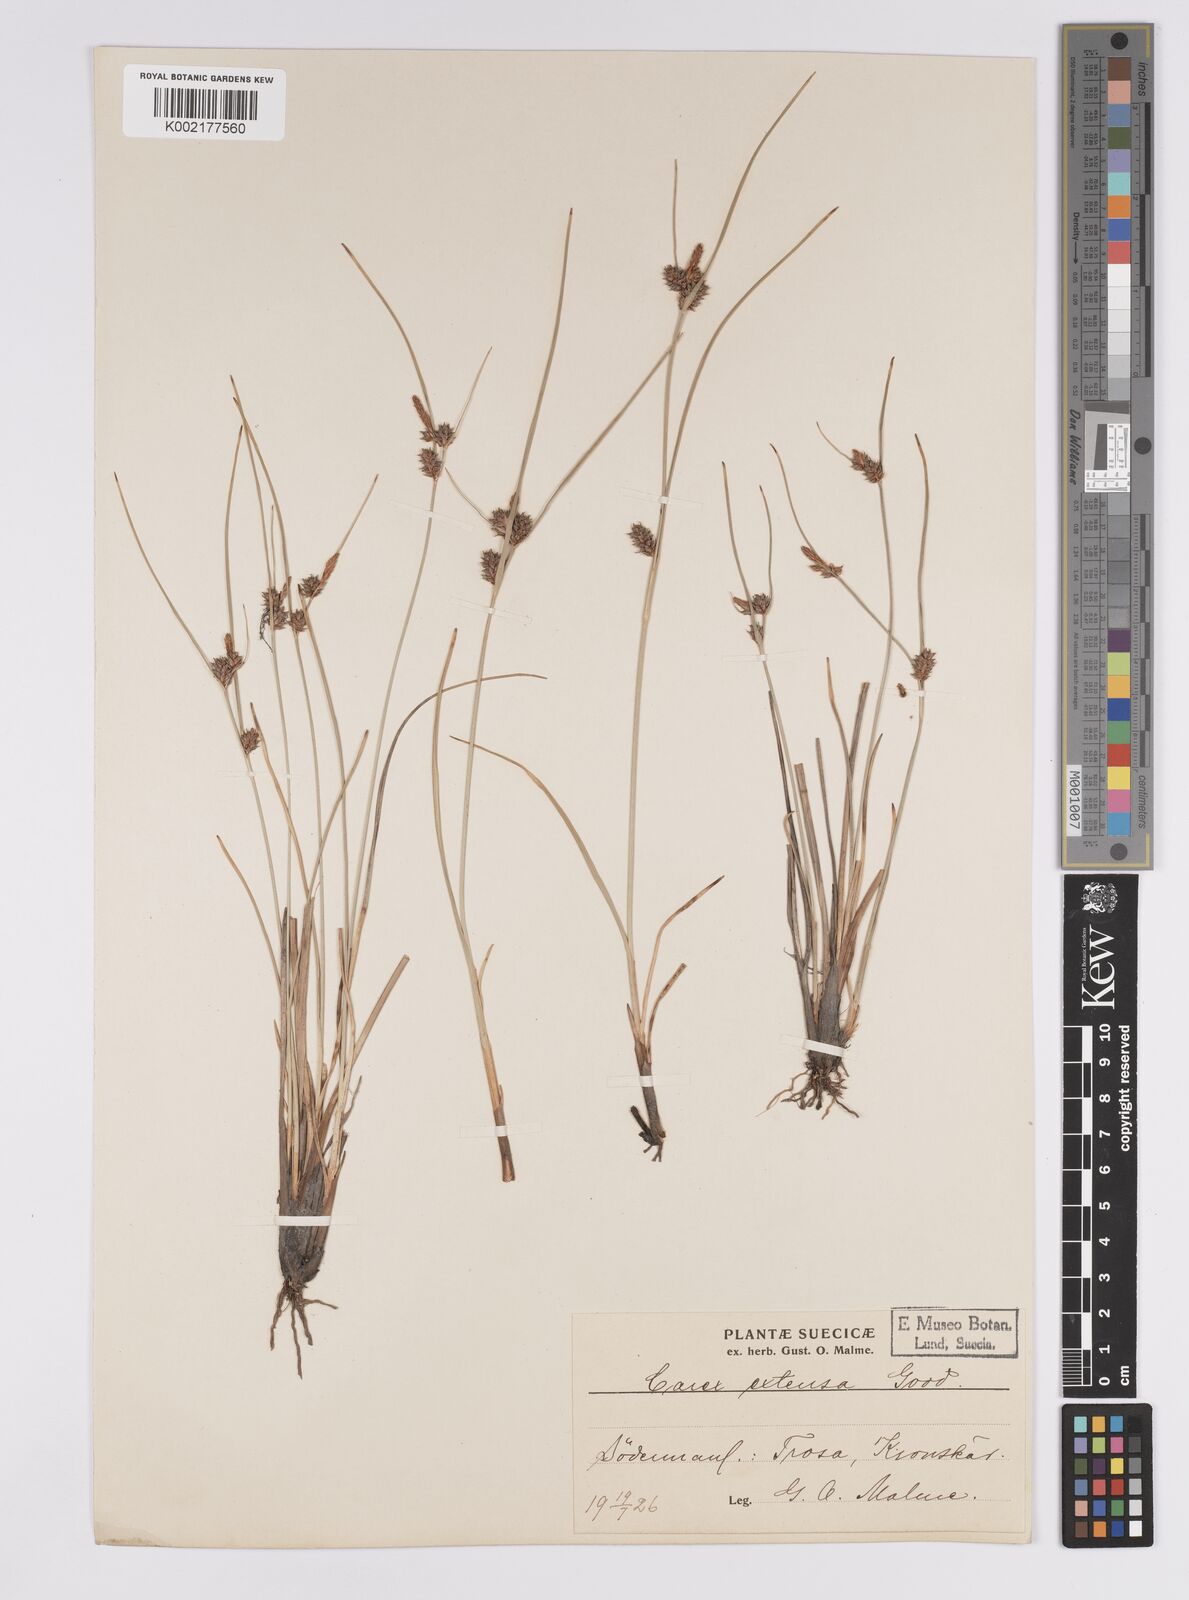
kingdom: Plantae
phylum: Tracheophyta
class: Liliopsida
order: Poales
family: Cyperaceae
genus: Carex
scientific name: Carex extensa
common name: Long-bracted sedge
